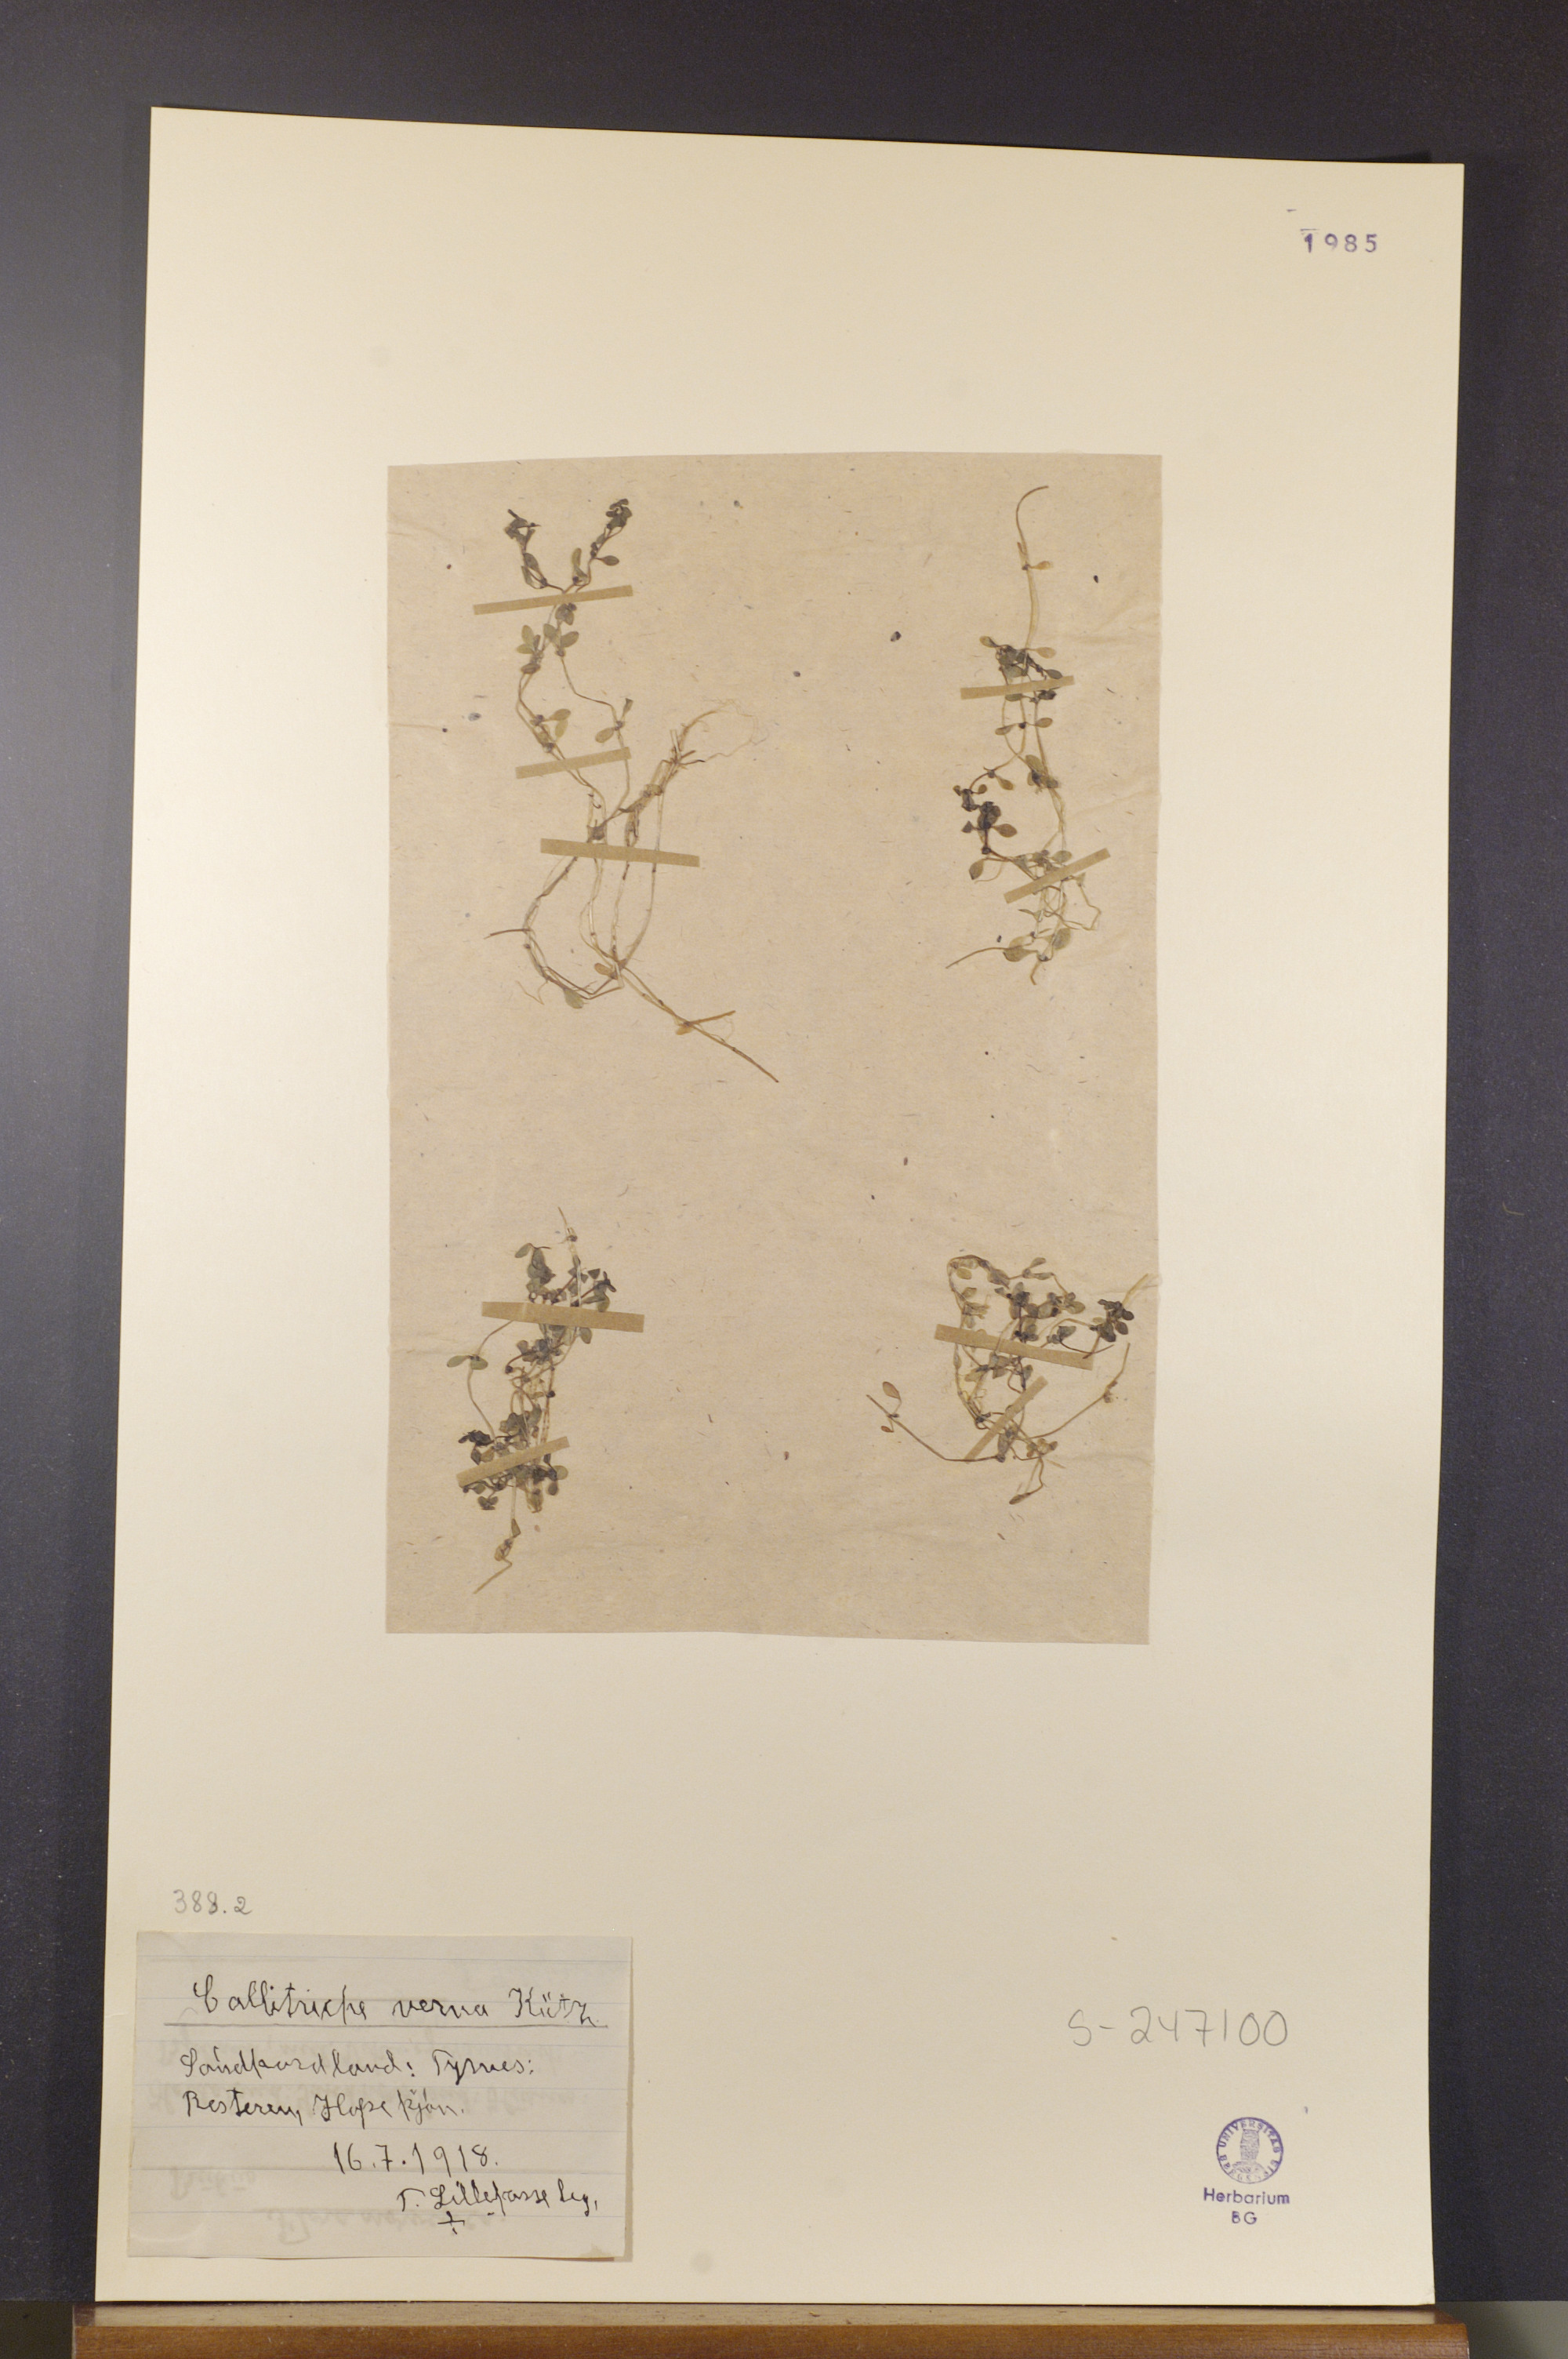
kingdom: Plantae
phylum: Tracheophyta
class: Magnoliopsida
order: Lamiales
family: Plantaginaceae
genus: Callitriche
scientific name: Callitriche stagnalis
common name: Common water-starwort
